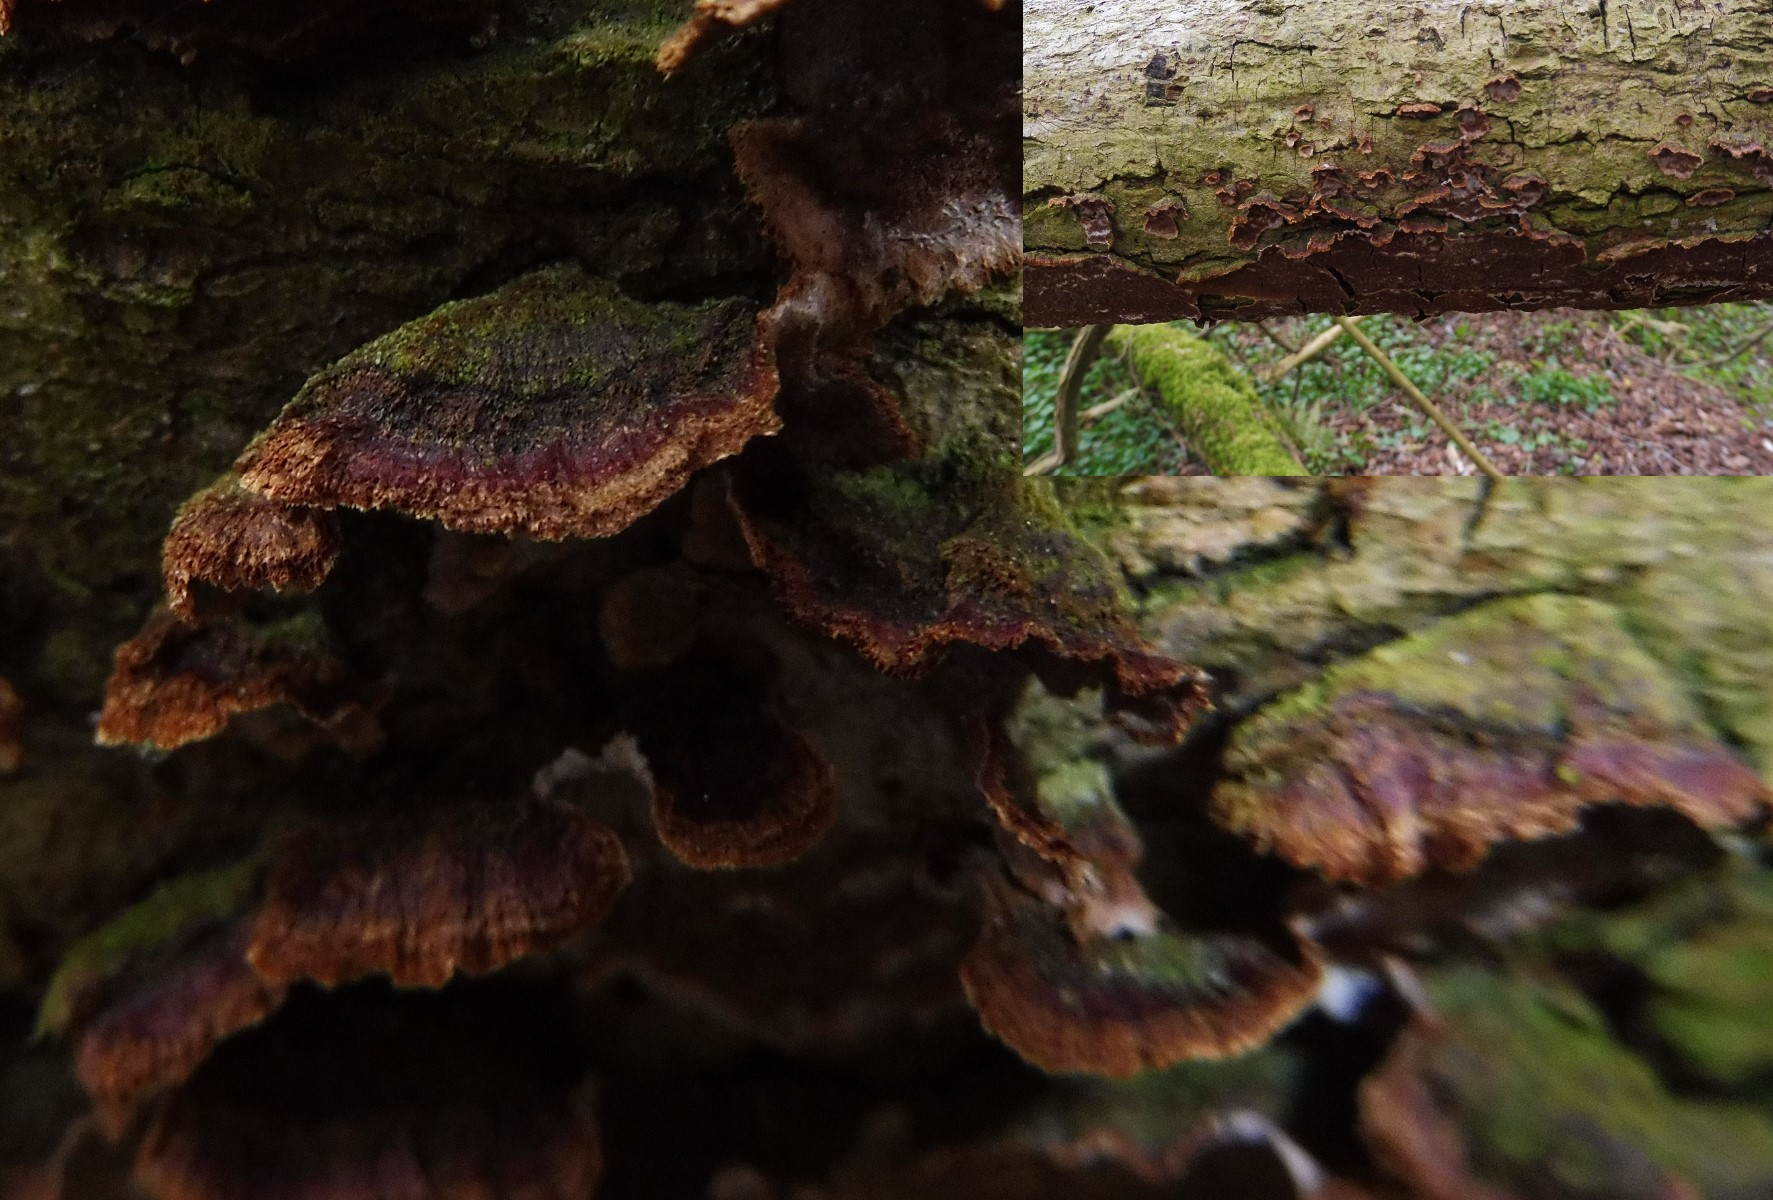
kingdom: Fungi
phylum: Basidiomycota
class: Agaricomycetes
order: Hymenochaetales
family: Hymenochaetaceae
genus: Hydnoporia
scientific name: Hydnoporia tabacina
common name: tobaksbrun ruslædersvamp
